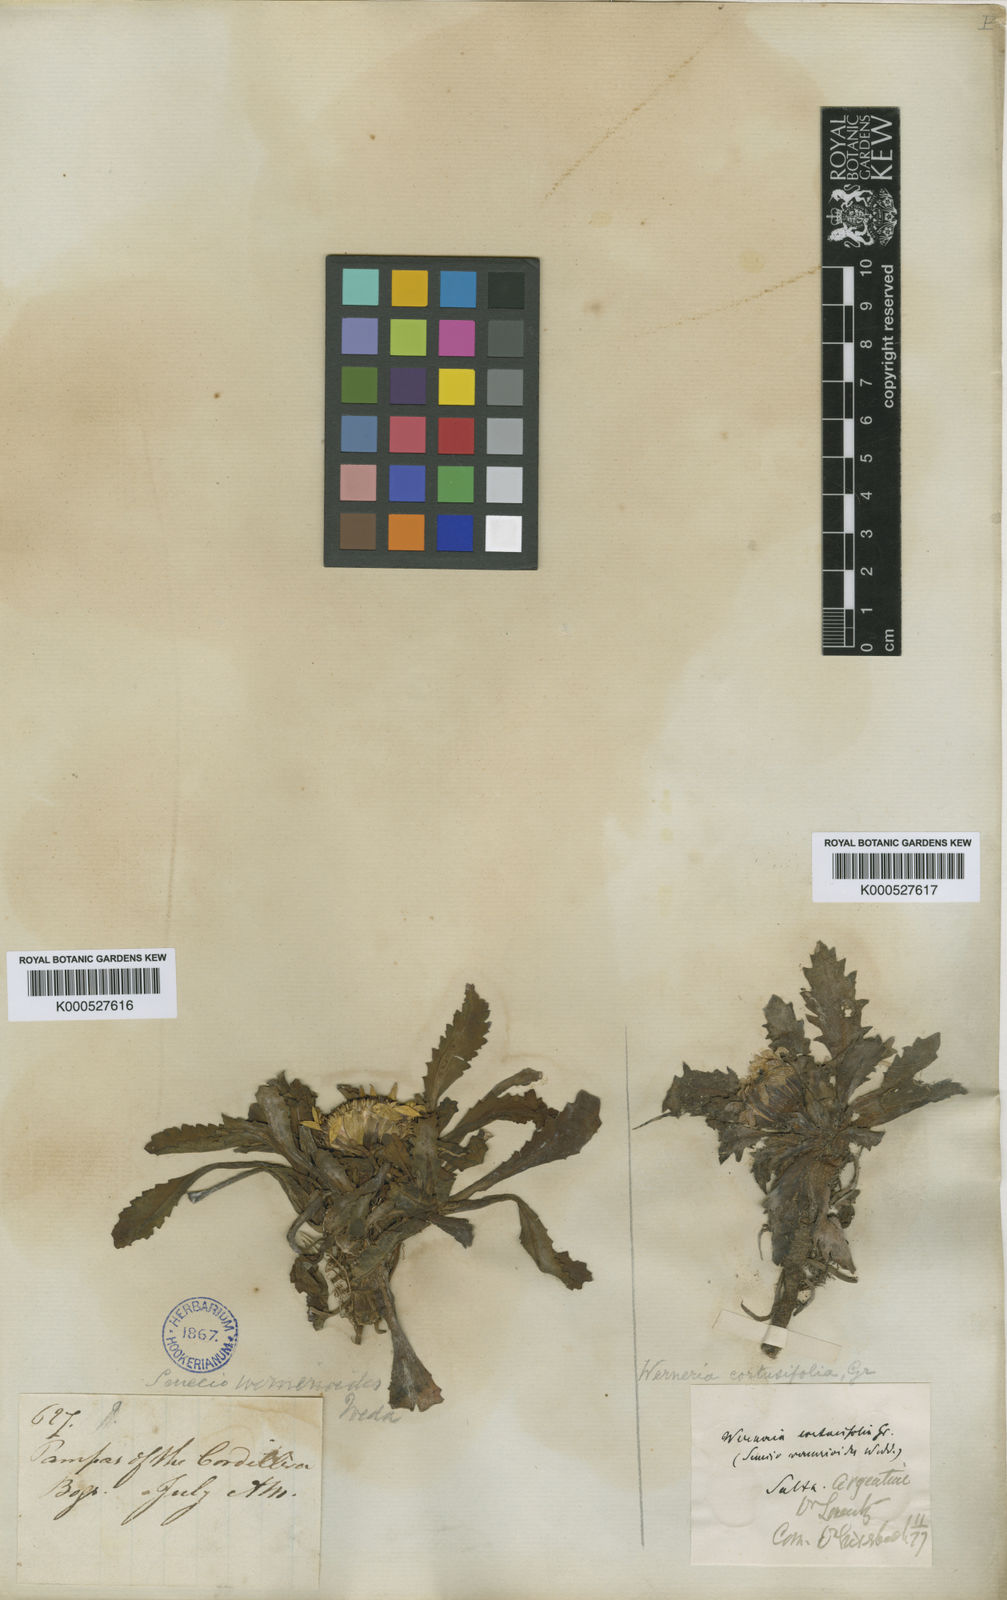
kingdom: Plantae
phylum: Tracheophyta
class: Magnoliopsida
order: Asterales
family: Asteraceae
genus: Senecio
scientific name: Senecio breviscapus
